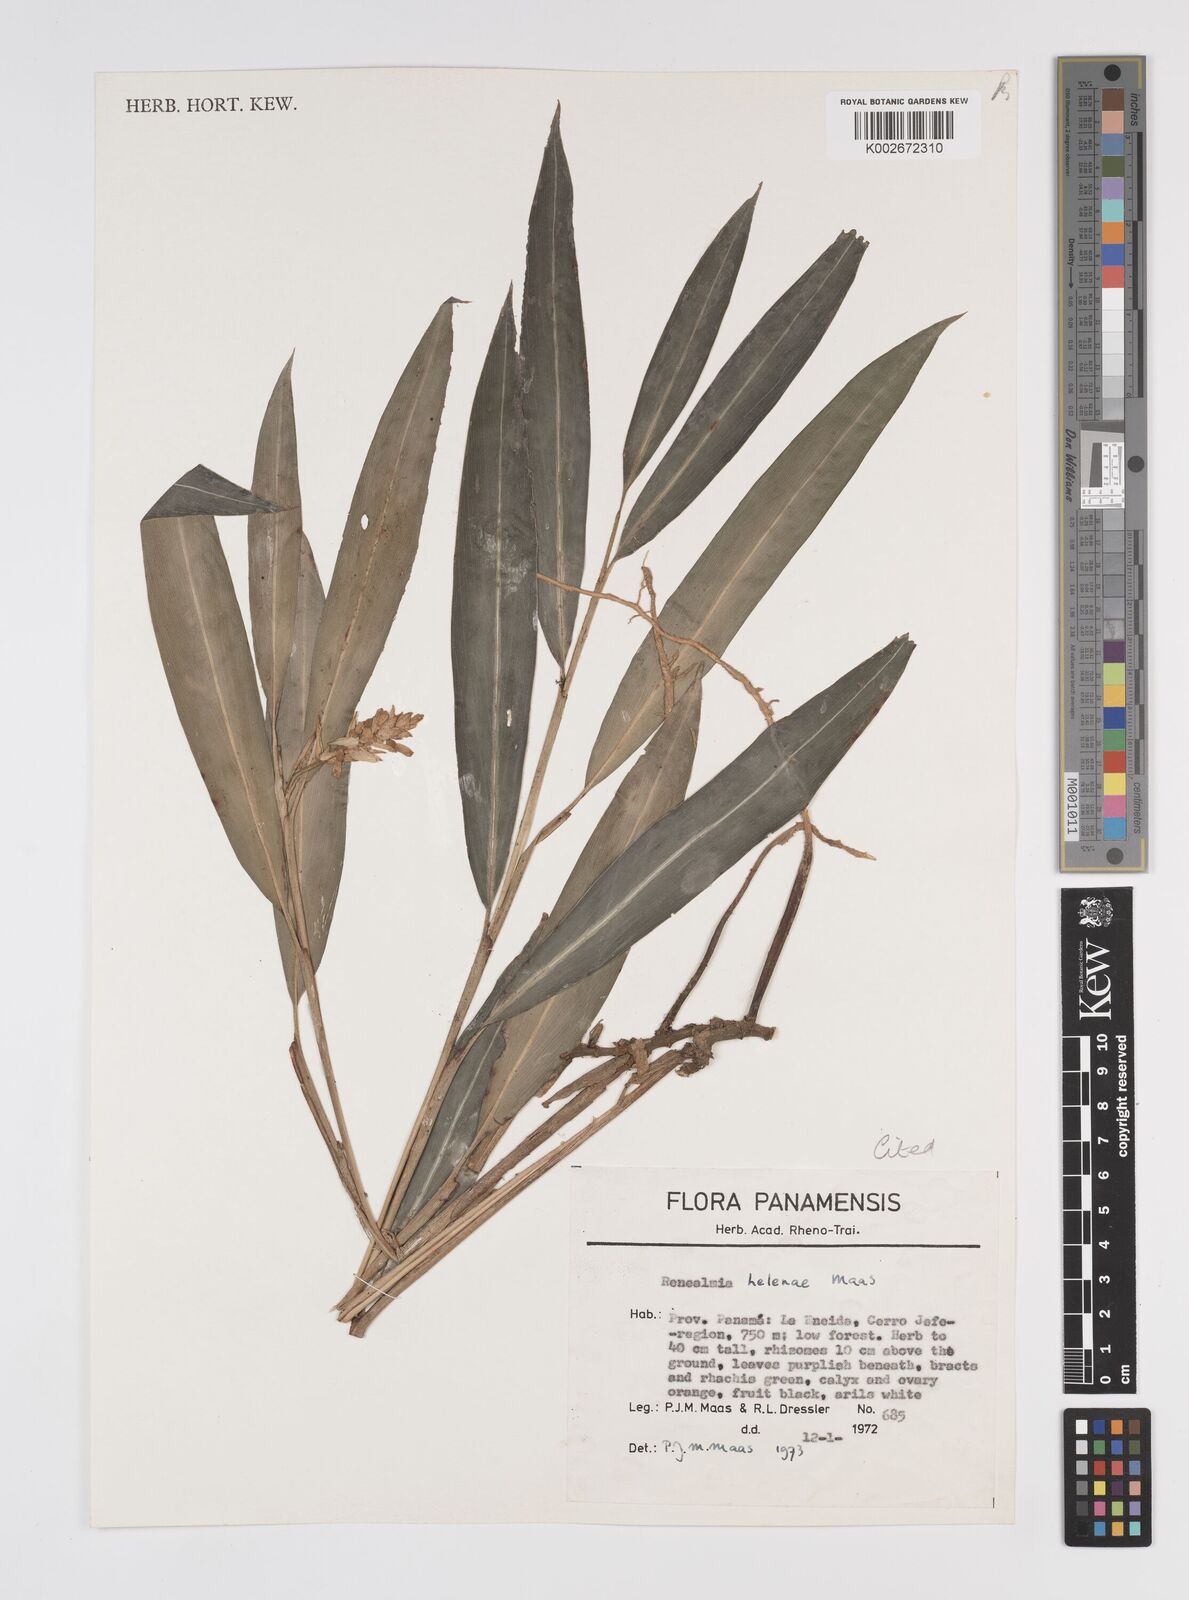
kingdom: Plantae
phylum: Tracheophyta
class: Liliopsida
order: Zingiberales
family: Zingiberaceae
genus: Renealmia
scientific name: Renealmia heleniae
